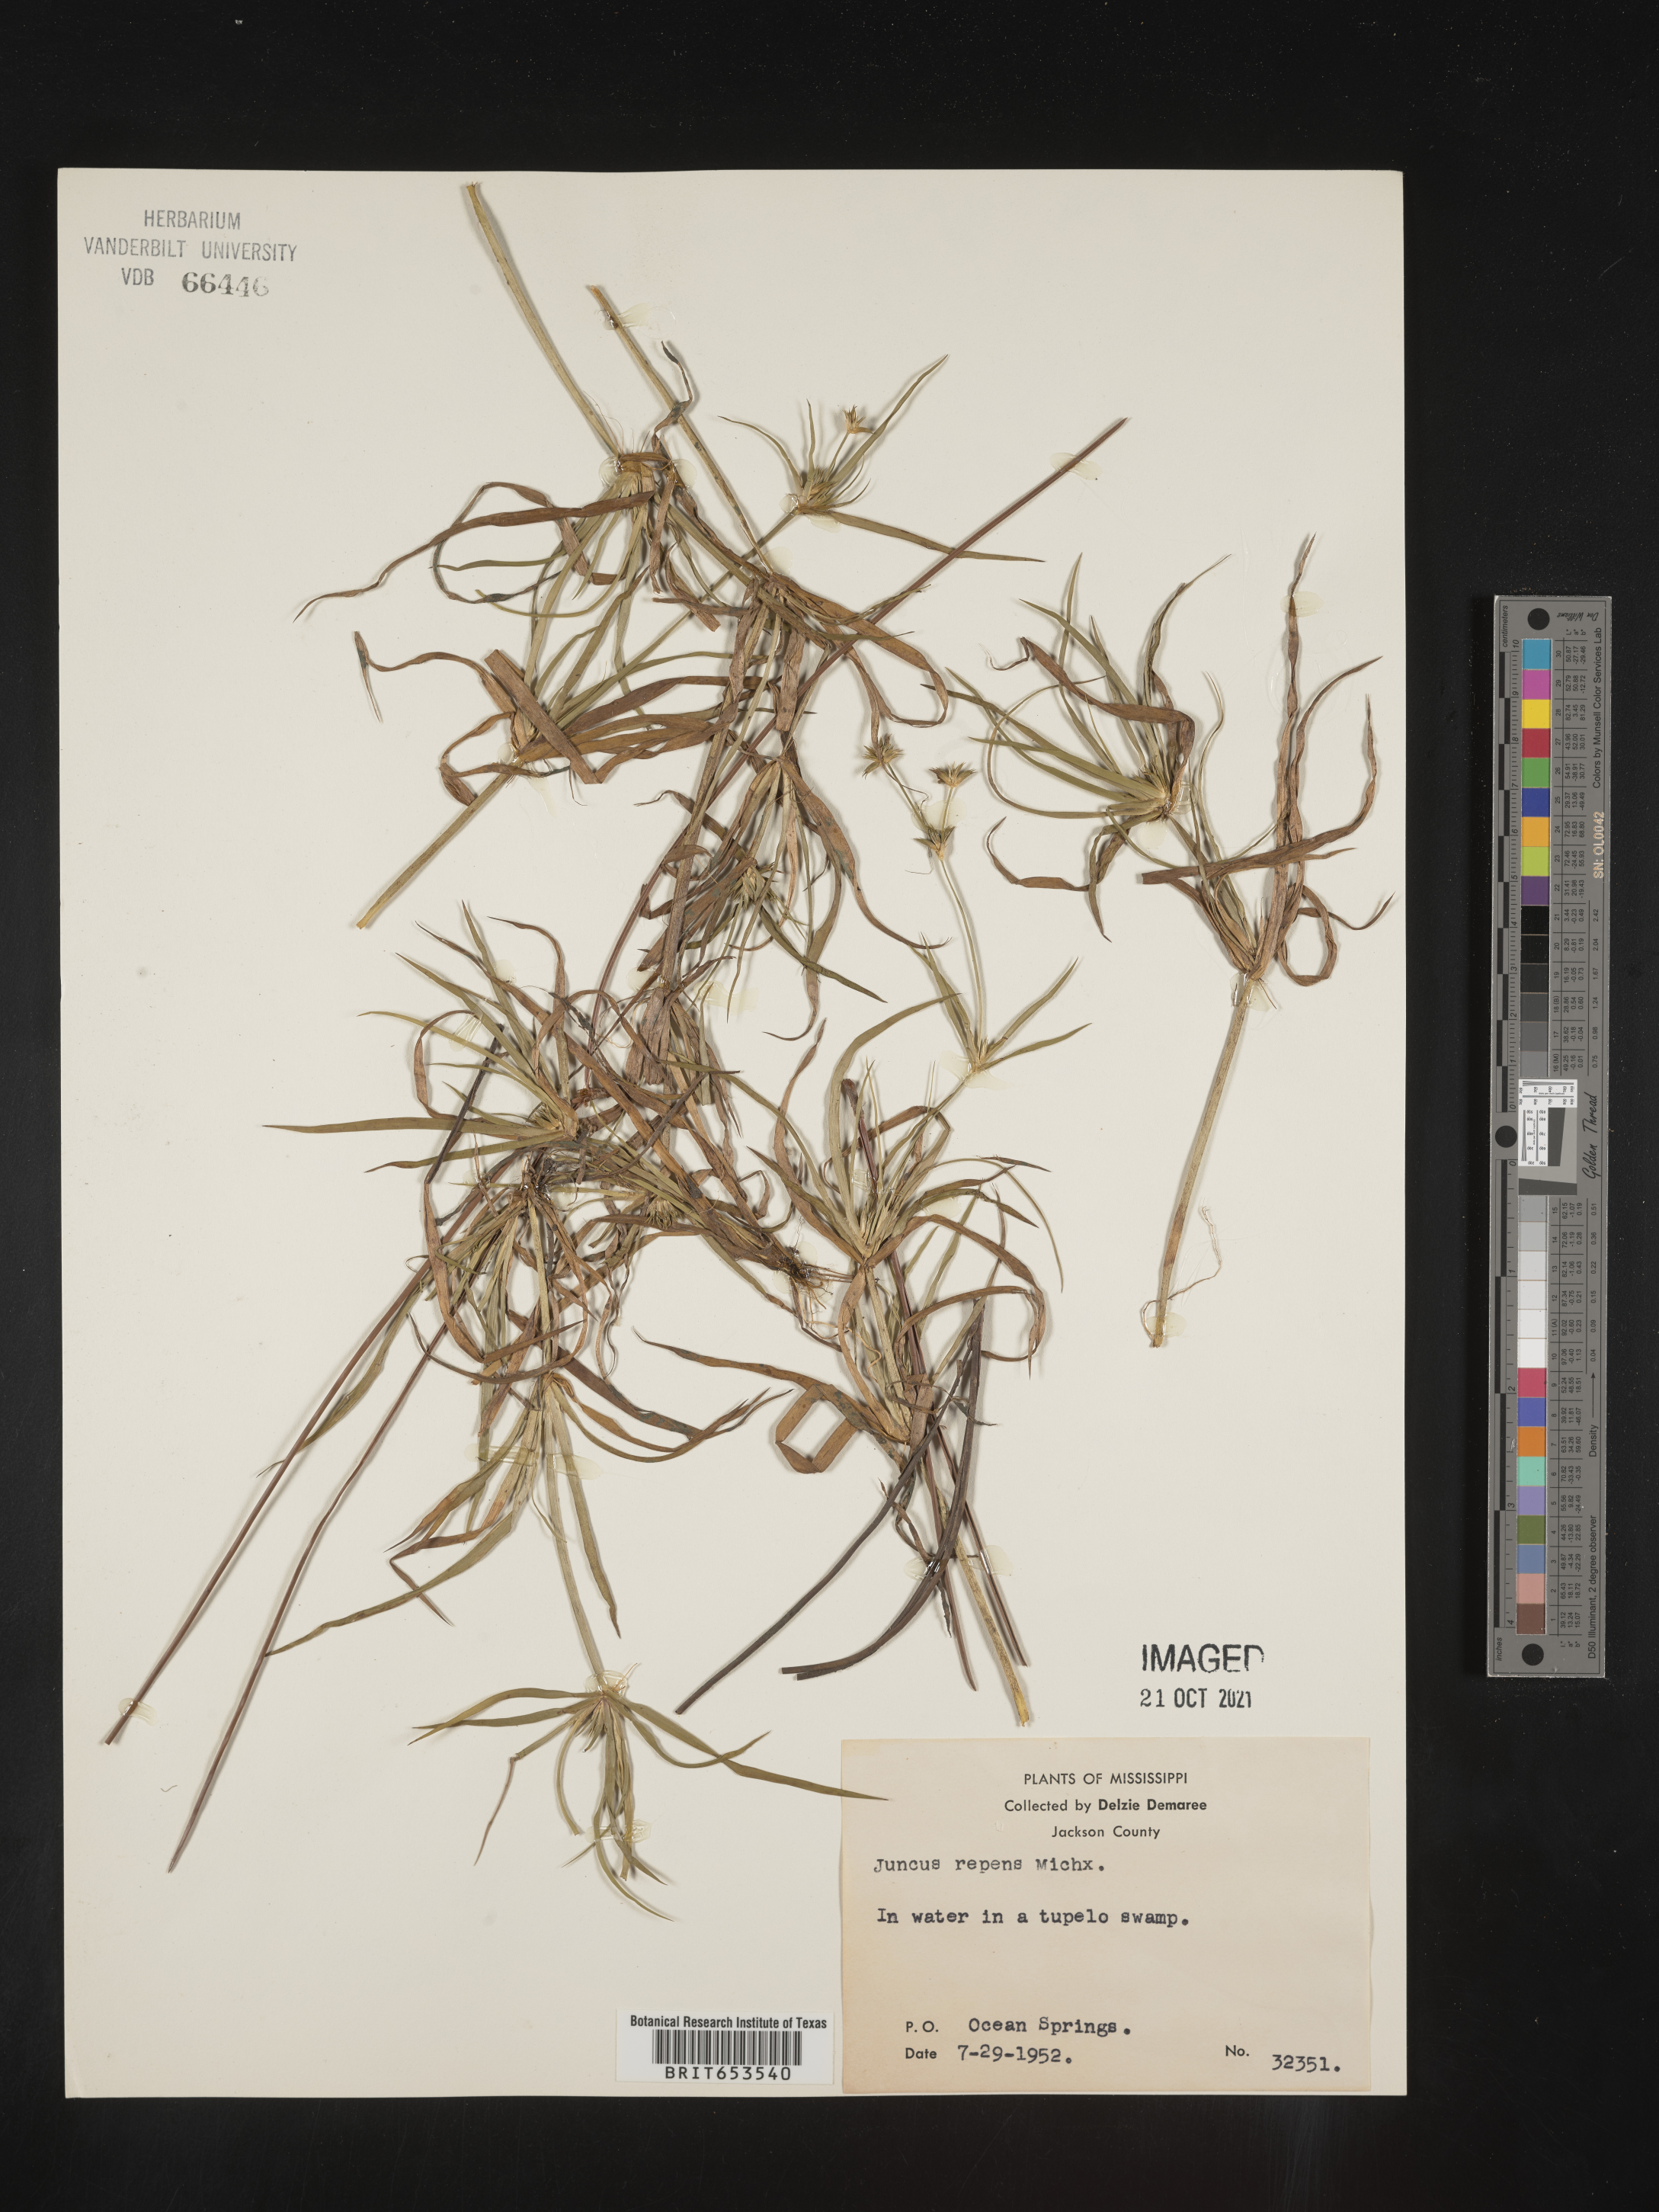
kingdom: Plantae
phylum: Tracheophyta
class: Liliopsida
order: Poales
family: Juncaceae
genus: Juncus
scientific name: Juncus repens
